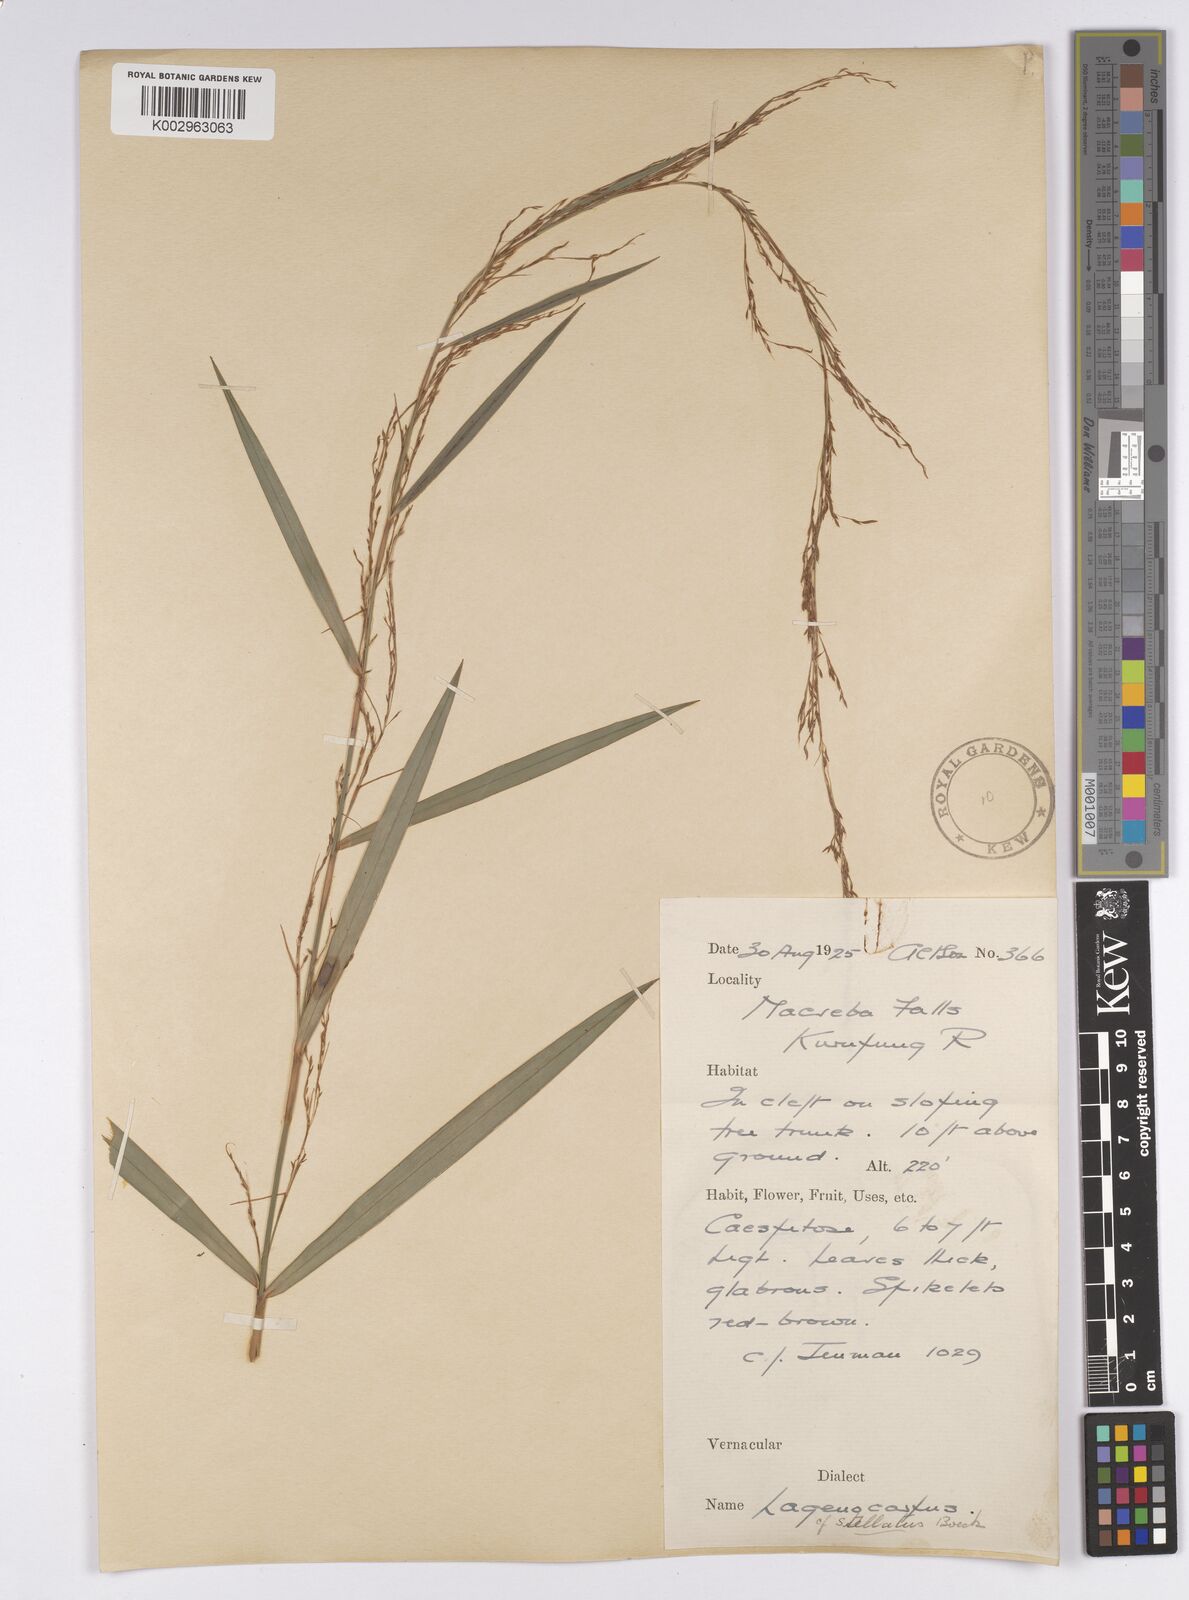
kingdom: Plantae
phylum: Tracheophyta
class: Liliopsida
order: Poales
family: Cyperaceae
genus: Didymiandrum
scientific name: Didymiandrum stellatum
